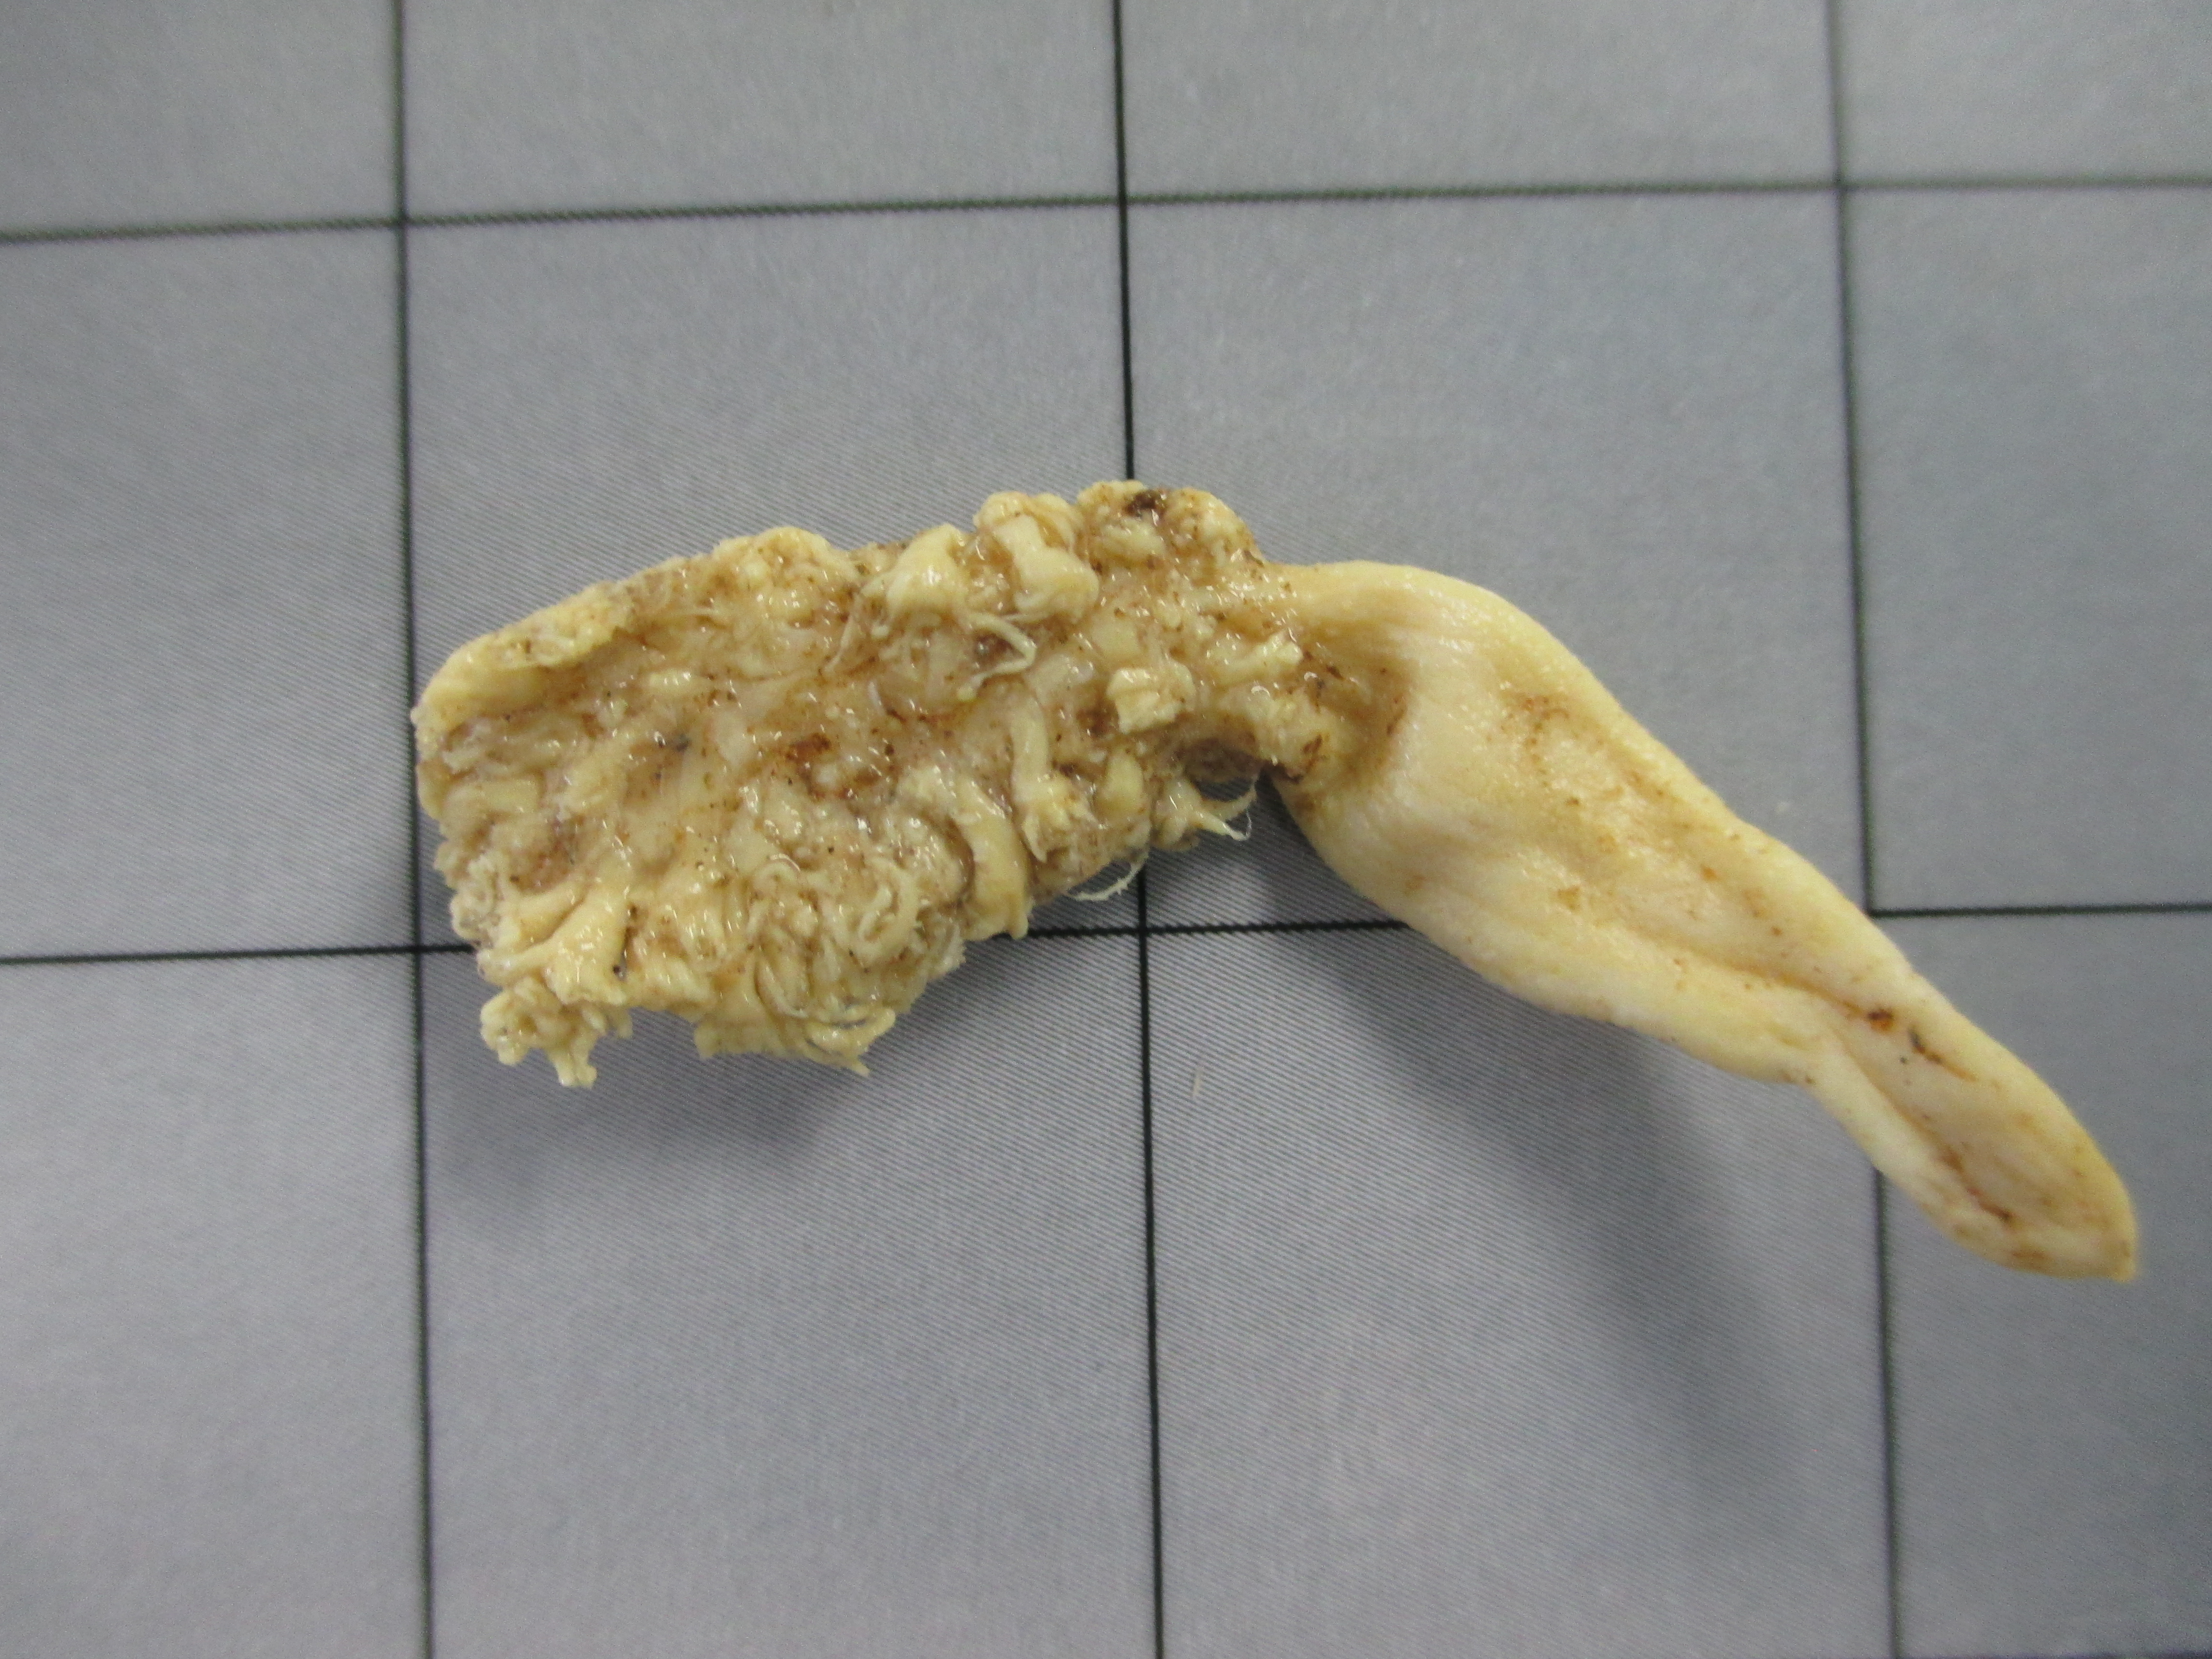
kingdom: Animalia
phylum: Cnidaria
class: Anthozoa
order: Scleralcyonacea
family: Veretillidae
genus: Cavernularia
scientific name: Cavernularia
